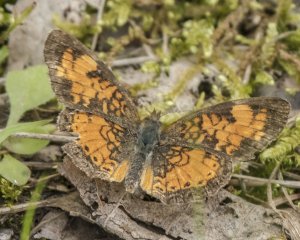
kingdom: Animalia
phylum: Arthropoda
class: Insecta
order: Lepidoptera
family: Nymphalidae
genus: Phyciodes
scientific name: Phyciodes tharos
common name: Northern Crescent
